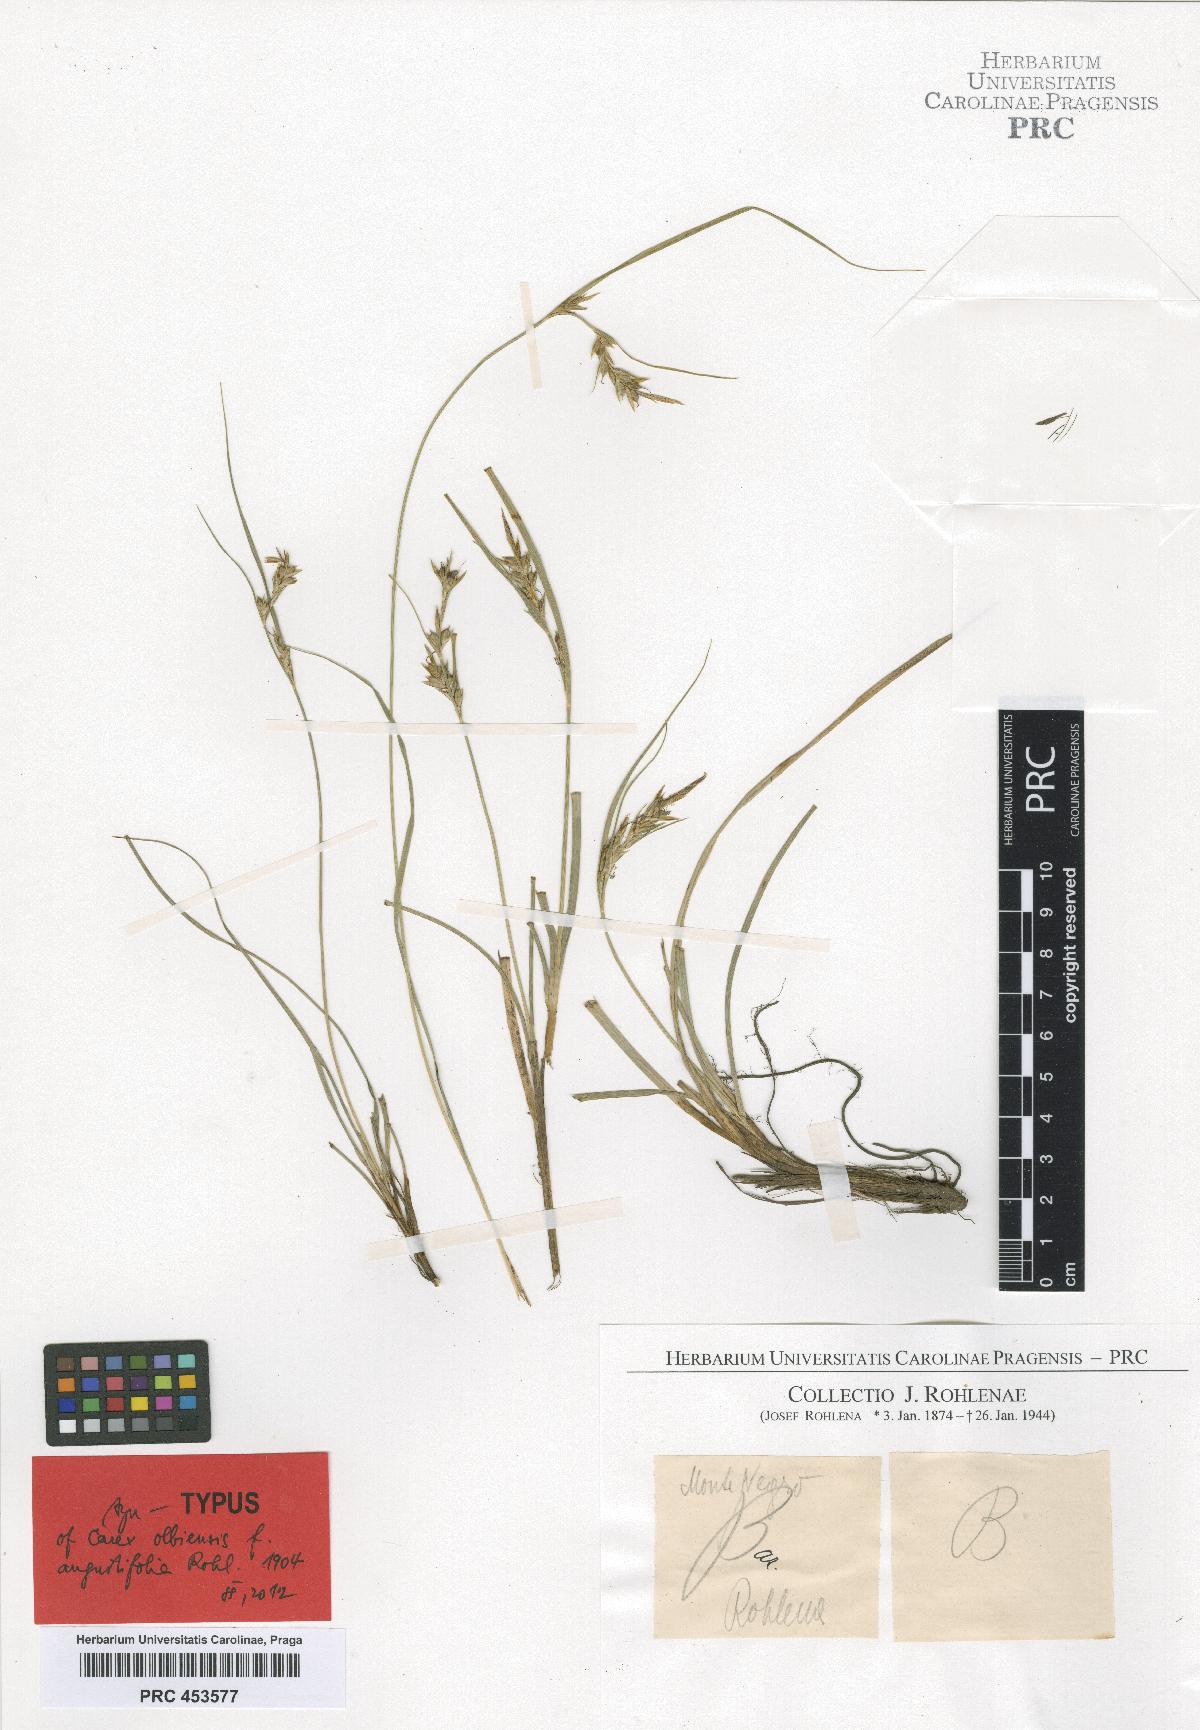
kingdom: Plantae
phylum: Tracheophyta
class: Liliopsida
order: Poales
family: Cyperaceae
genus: Carex
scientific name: Carex distachya
